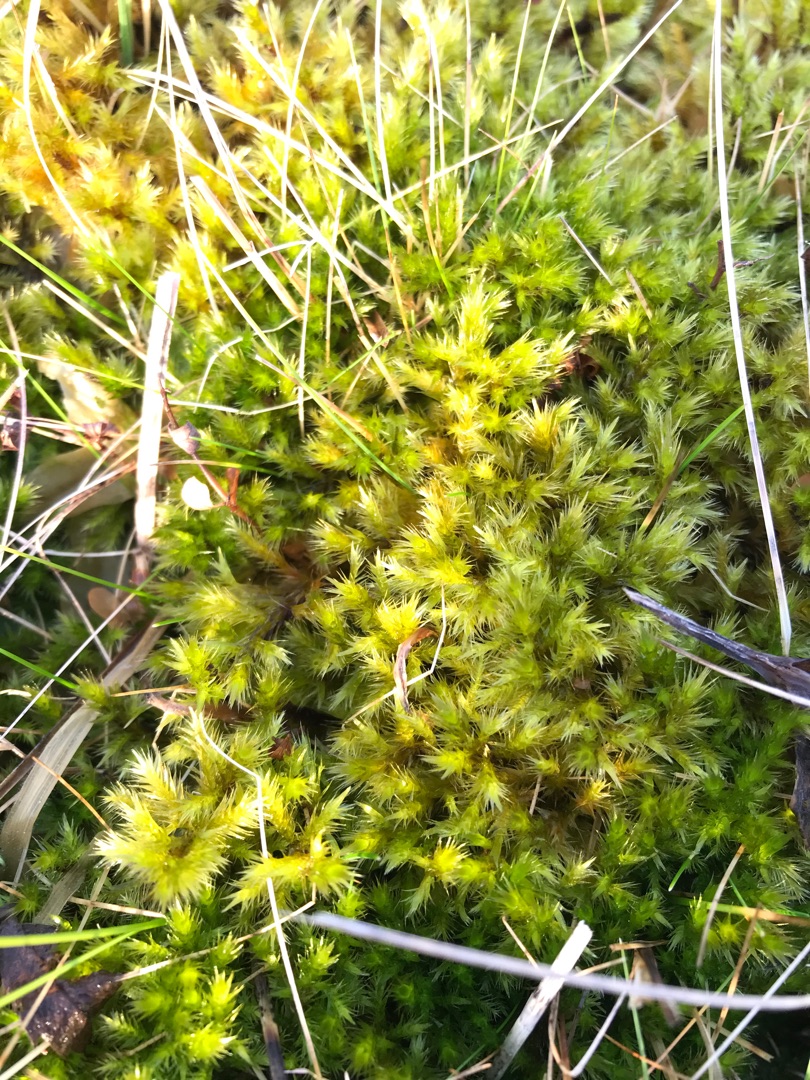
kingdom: Plantae
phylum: Bryophyta
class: Bryopsida
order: Hypnales
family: Amblystegiaceae
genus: Tomentypnum
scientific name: Tomentypnum nitens
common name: Glinsende kærmos
